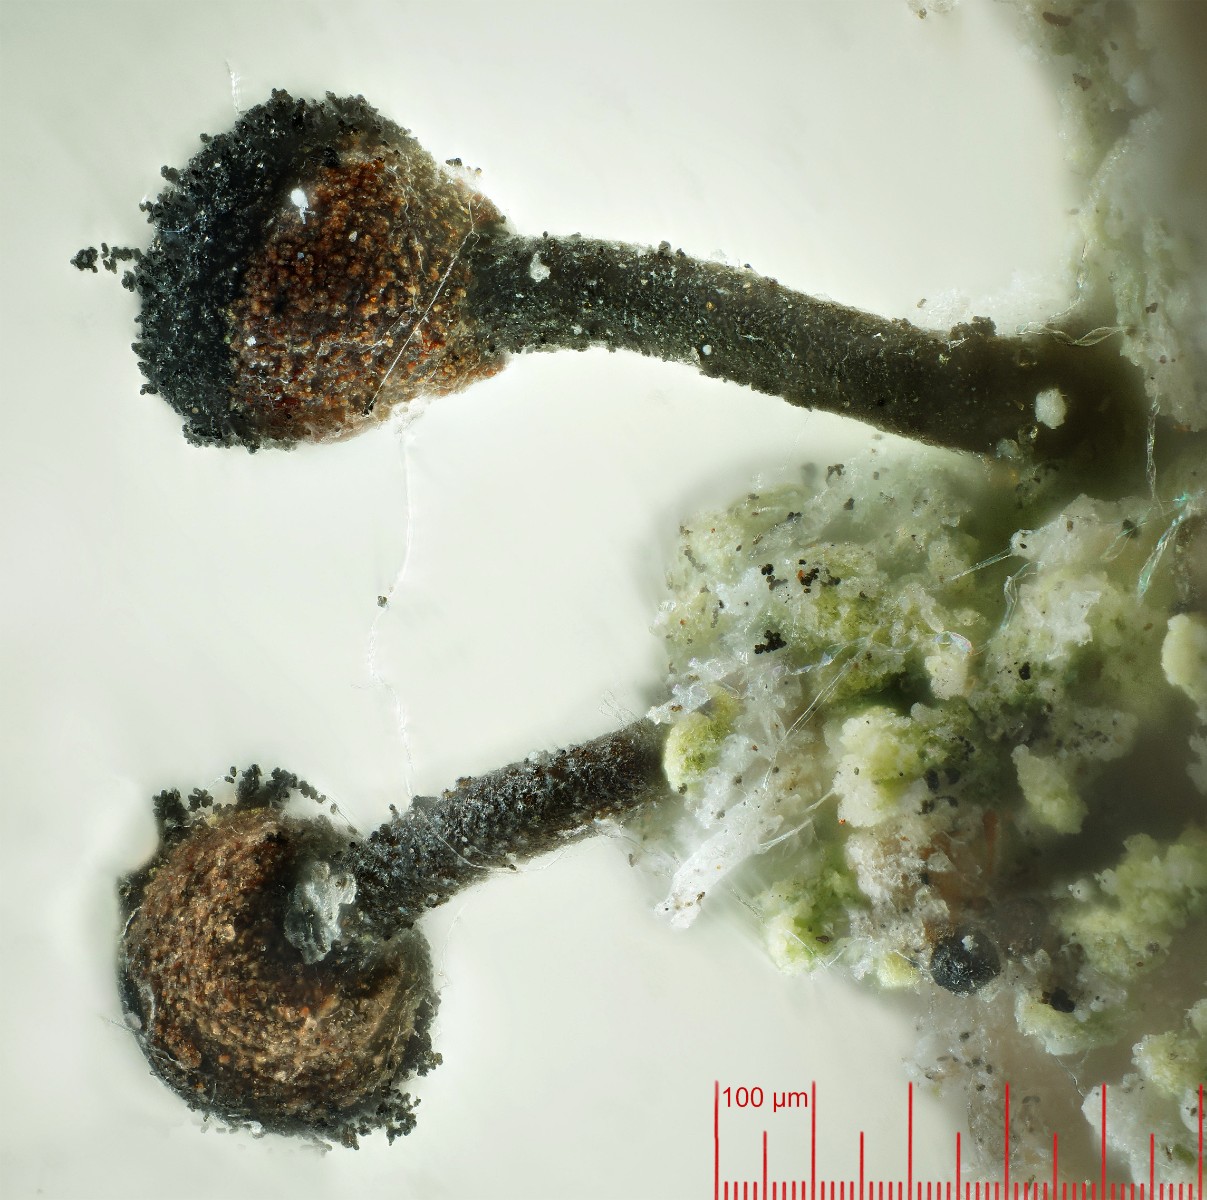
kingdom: Fungi
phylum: Ascomycota
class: Lecanoromycetes
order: Caliciales
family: Caliciaceae
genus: Calicium
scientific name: Calicium salicinum
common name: persoons nålelav
